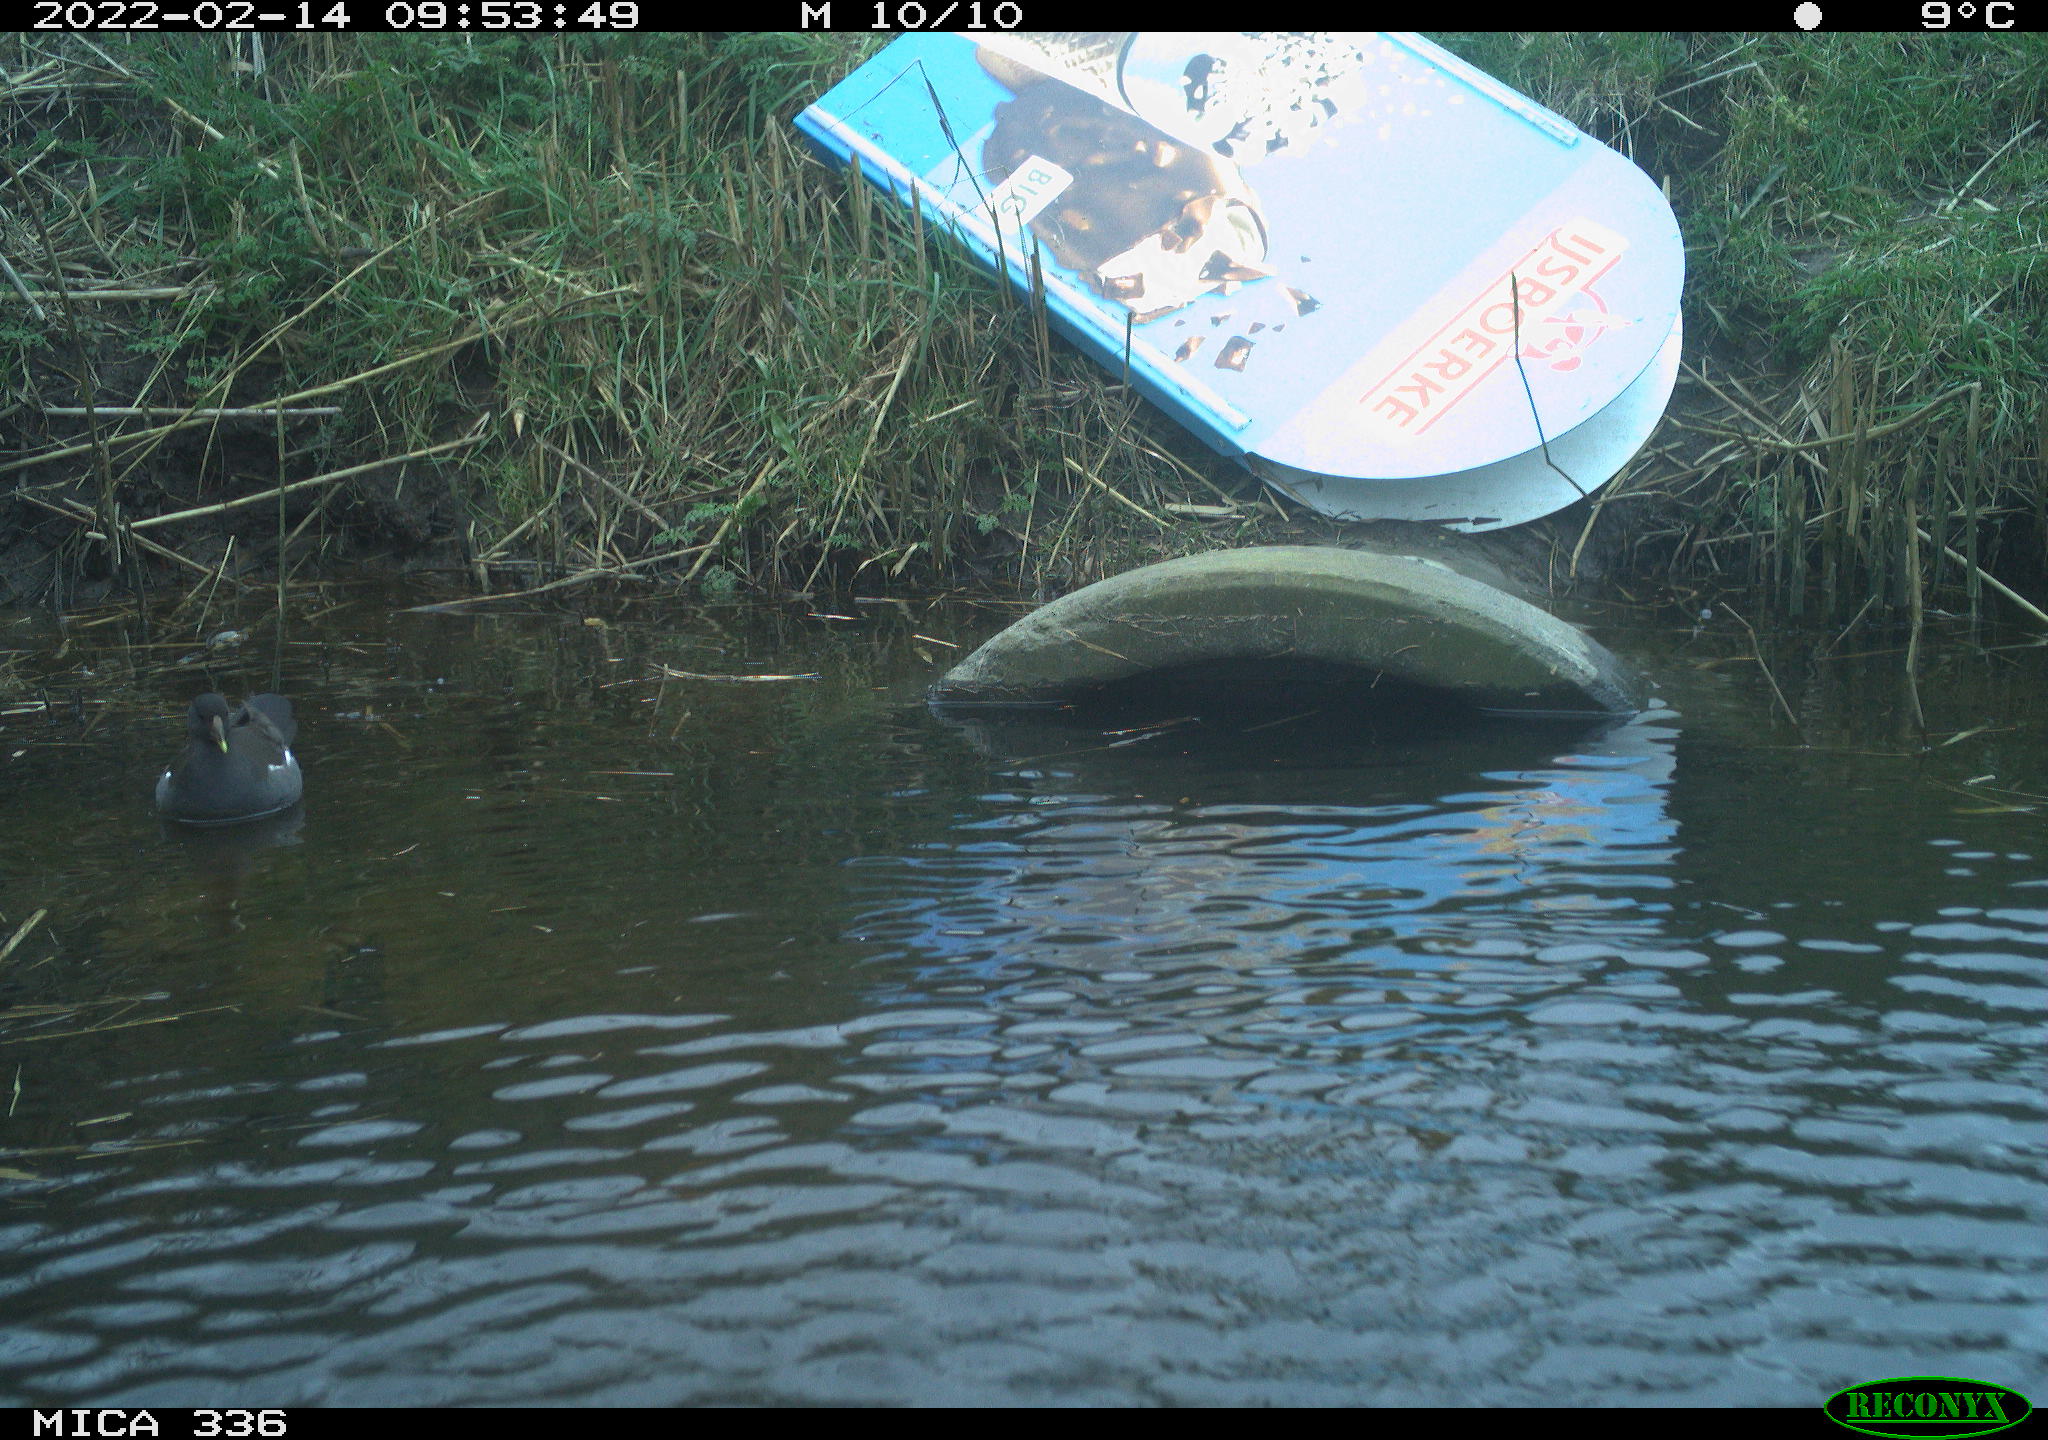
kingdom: Animalia
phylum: Chordata
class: Aves
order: Gruiformes
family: Rallidae
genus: Gallinula
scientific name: Gallinula chloropus
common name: Common moorhen
